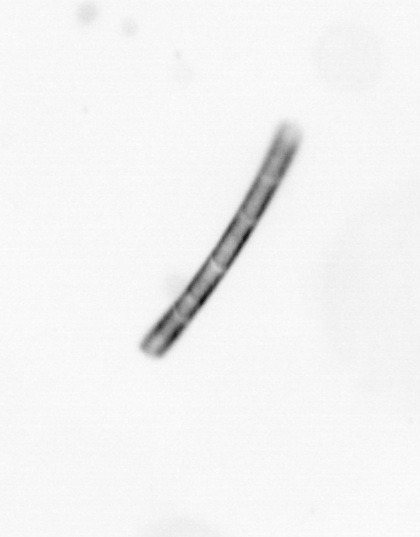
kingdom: Chromista
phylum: Ochrophyta
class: Bacillariophyceae
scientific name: Bacillariophyceae
